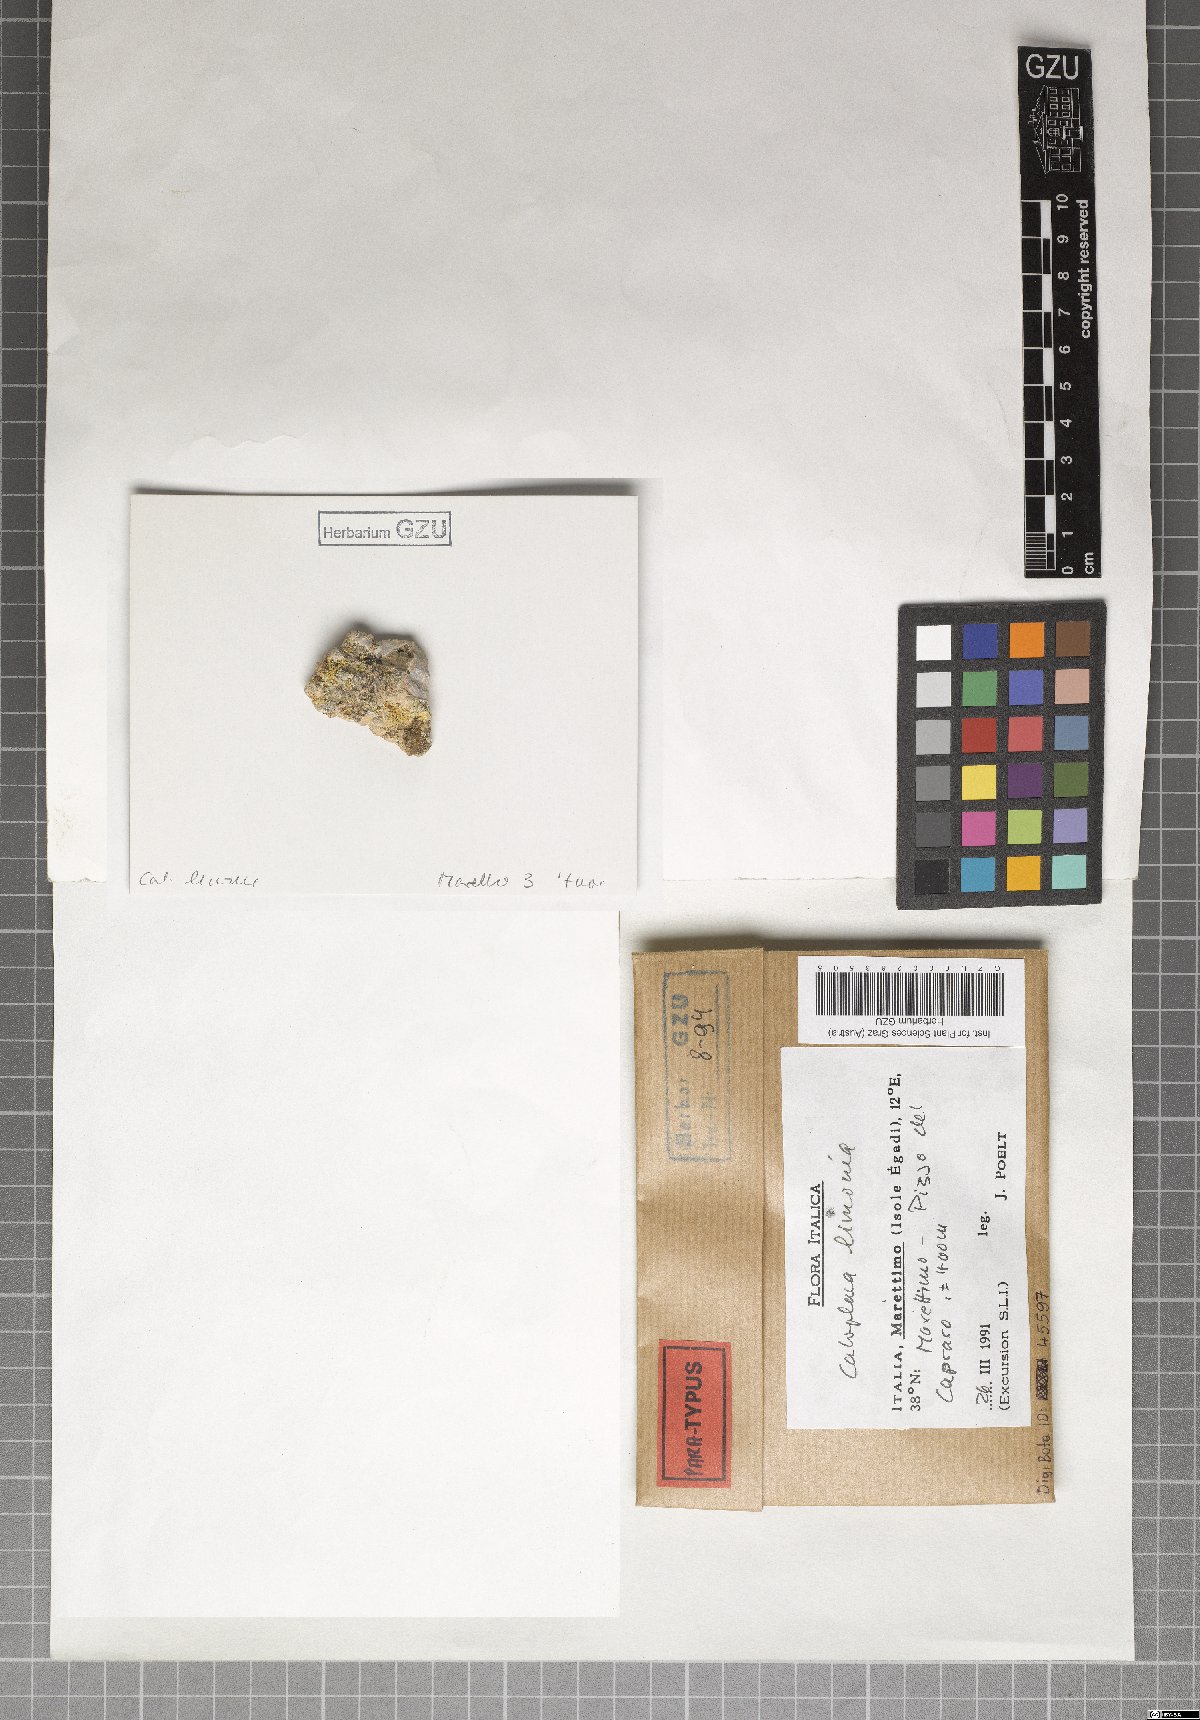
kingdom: Fungi
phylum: Ascomycota
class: Lecanoromycetes
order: Teloschistales
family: Teloschistaceae
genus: Flavoplaca
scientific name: Flavoplaca limonia
